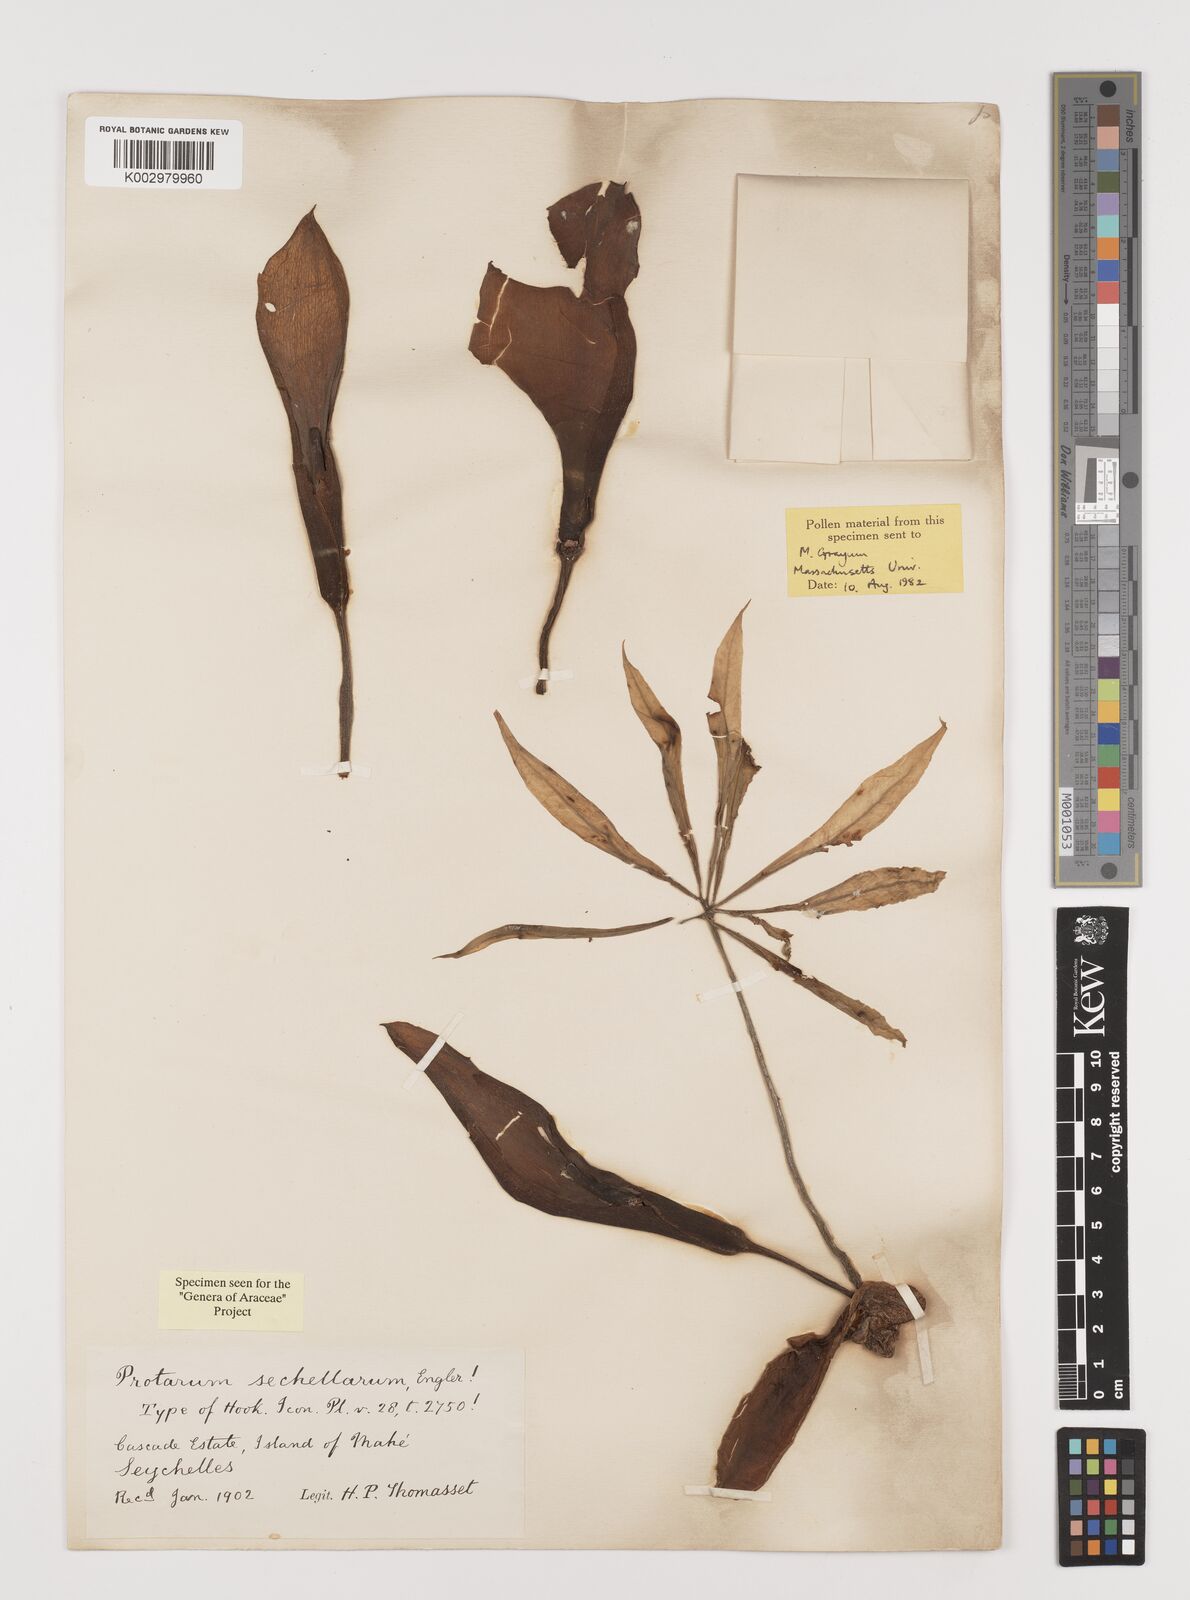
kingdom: Plantae
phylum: Tracheophyta
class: Liliopsida
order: Alismatales
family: Araceae
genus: Protarum
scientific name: Protarum sechellarum
